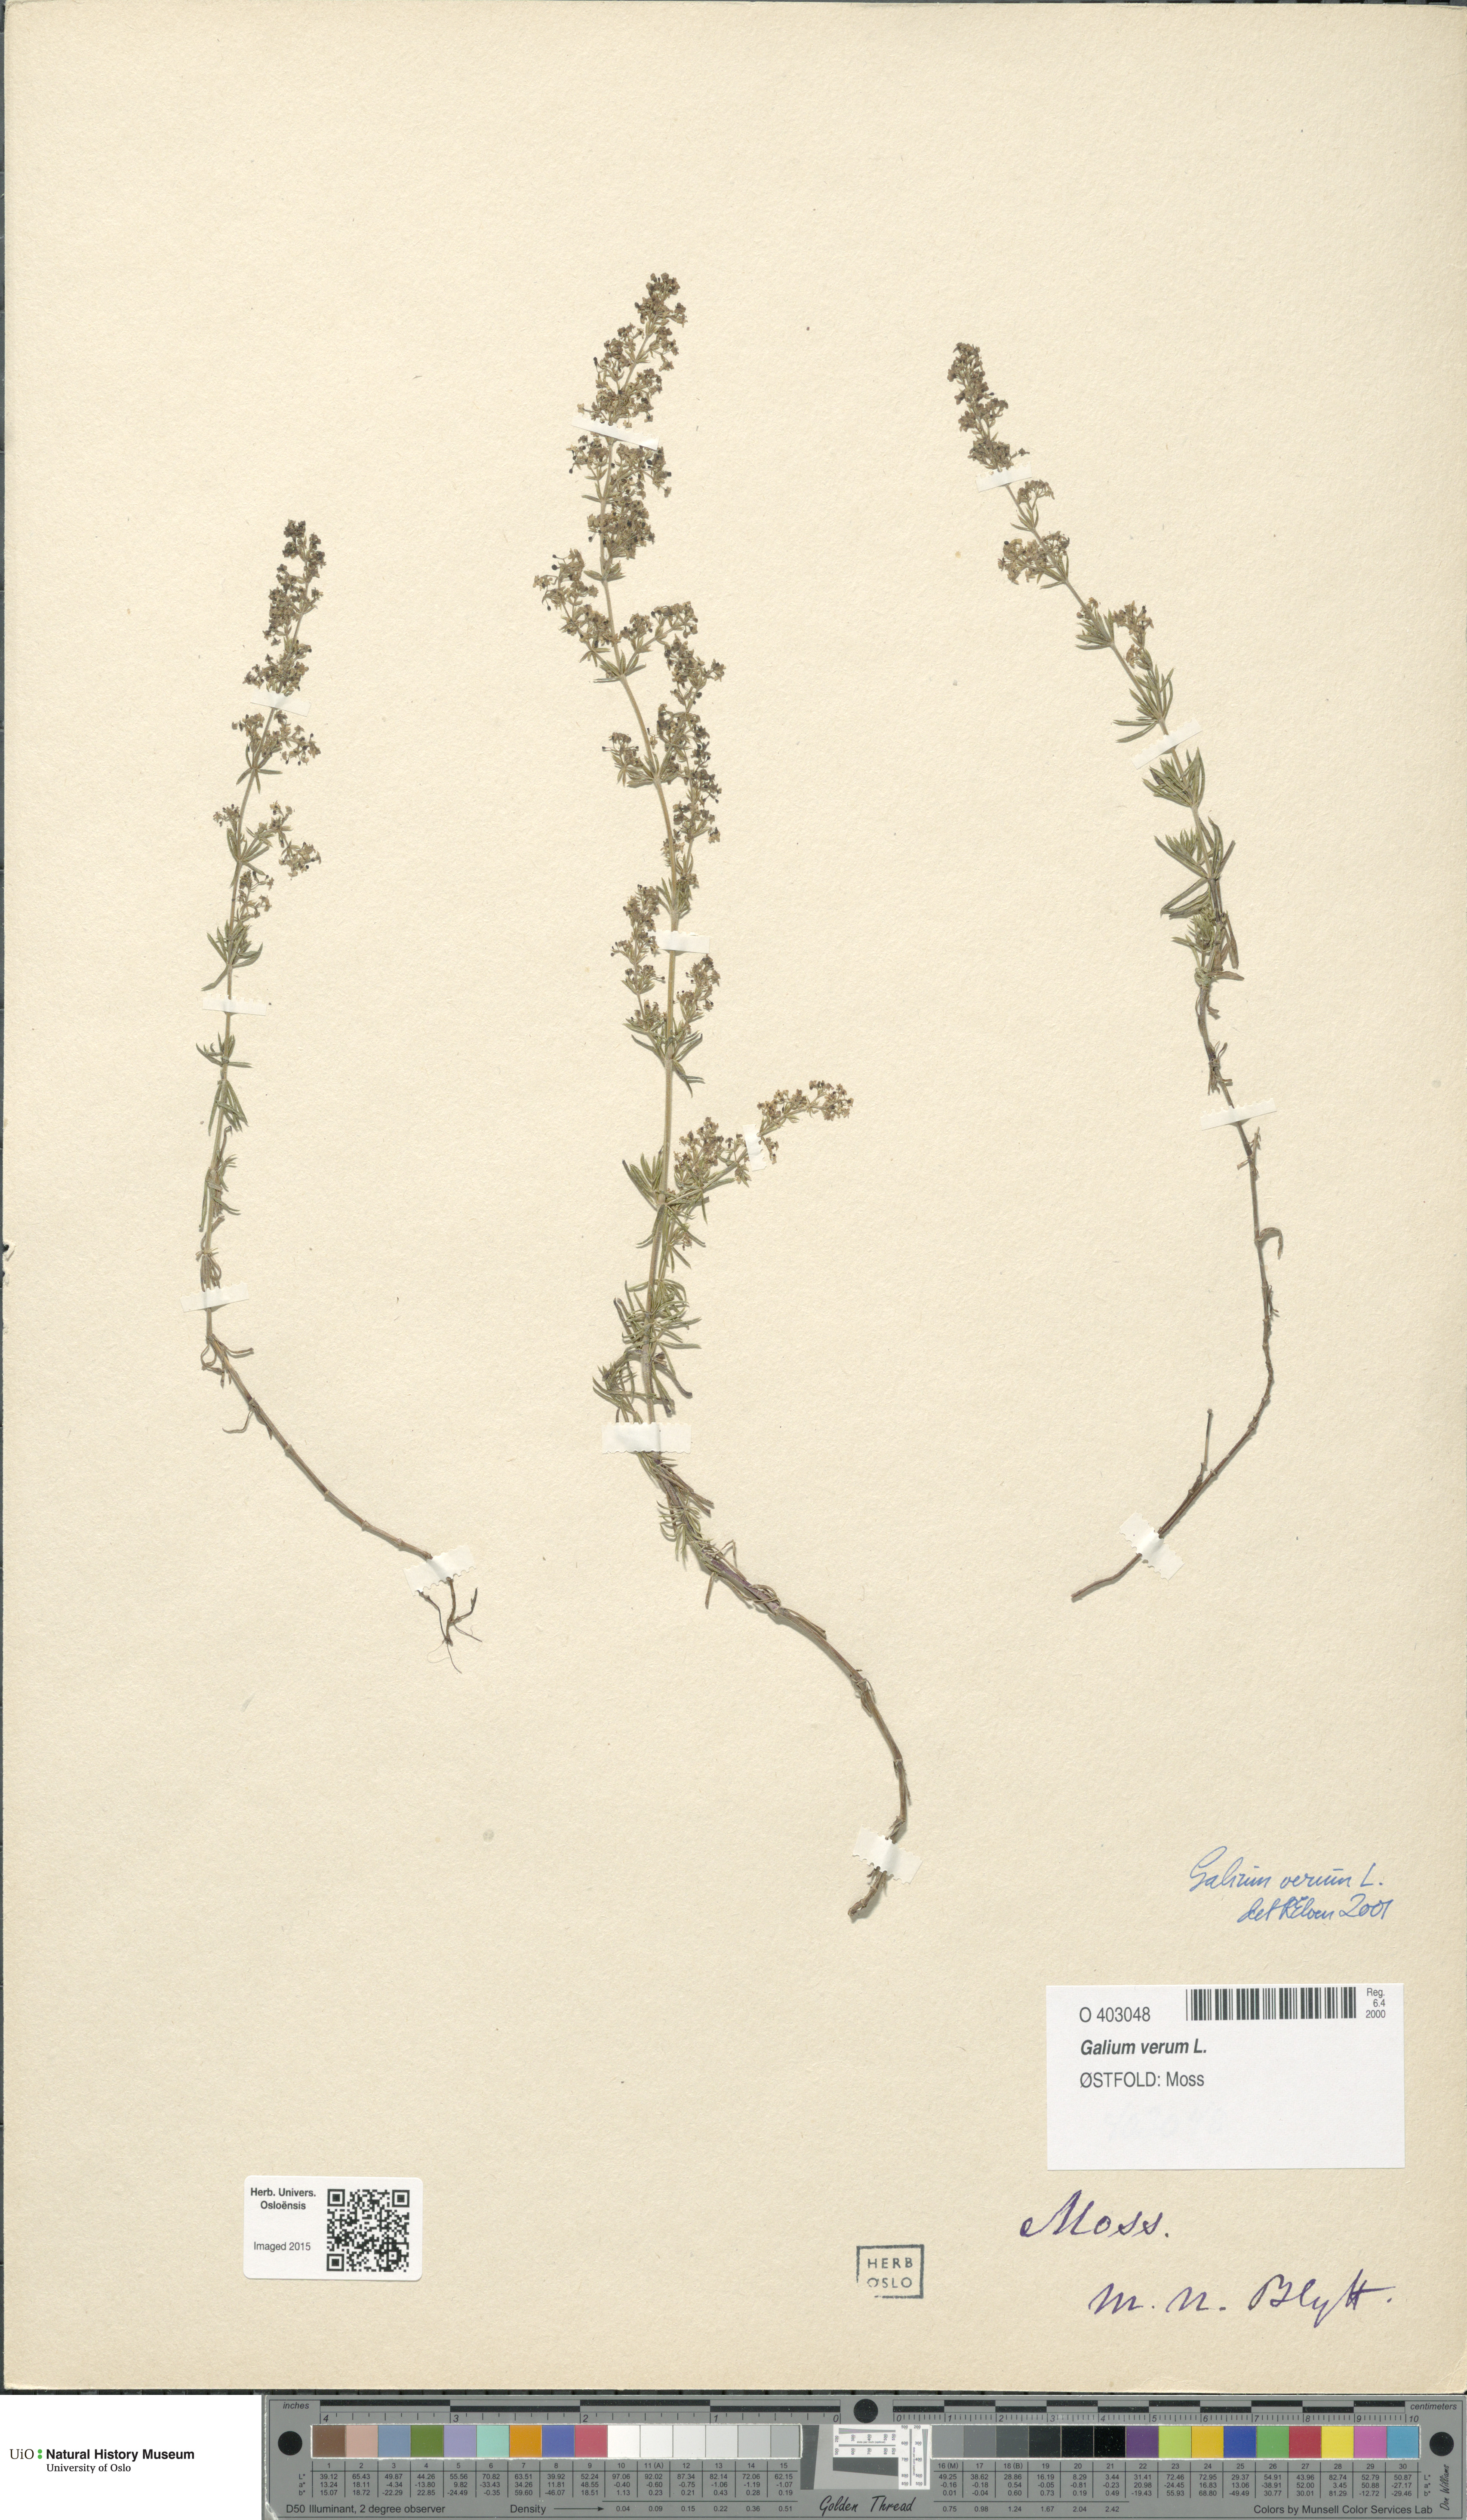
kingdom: Plantae
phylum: Tracheophyta
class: Magnoliopsida
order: Gentianales
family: Rubiaceae
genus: Galium
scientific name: Galium verum
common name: Lady's bedstraw
